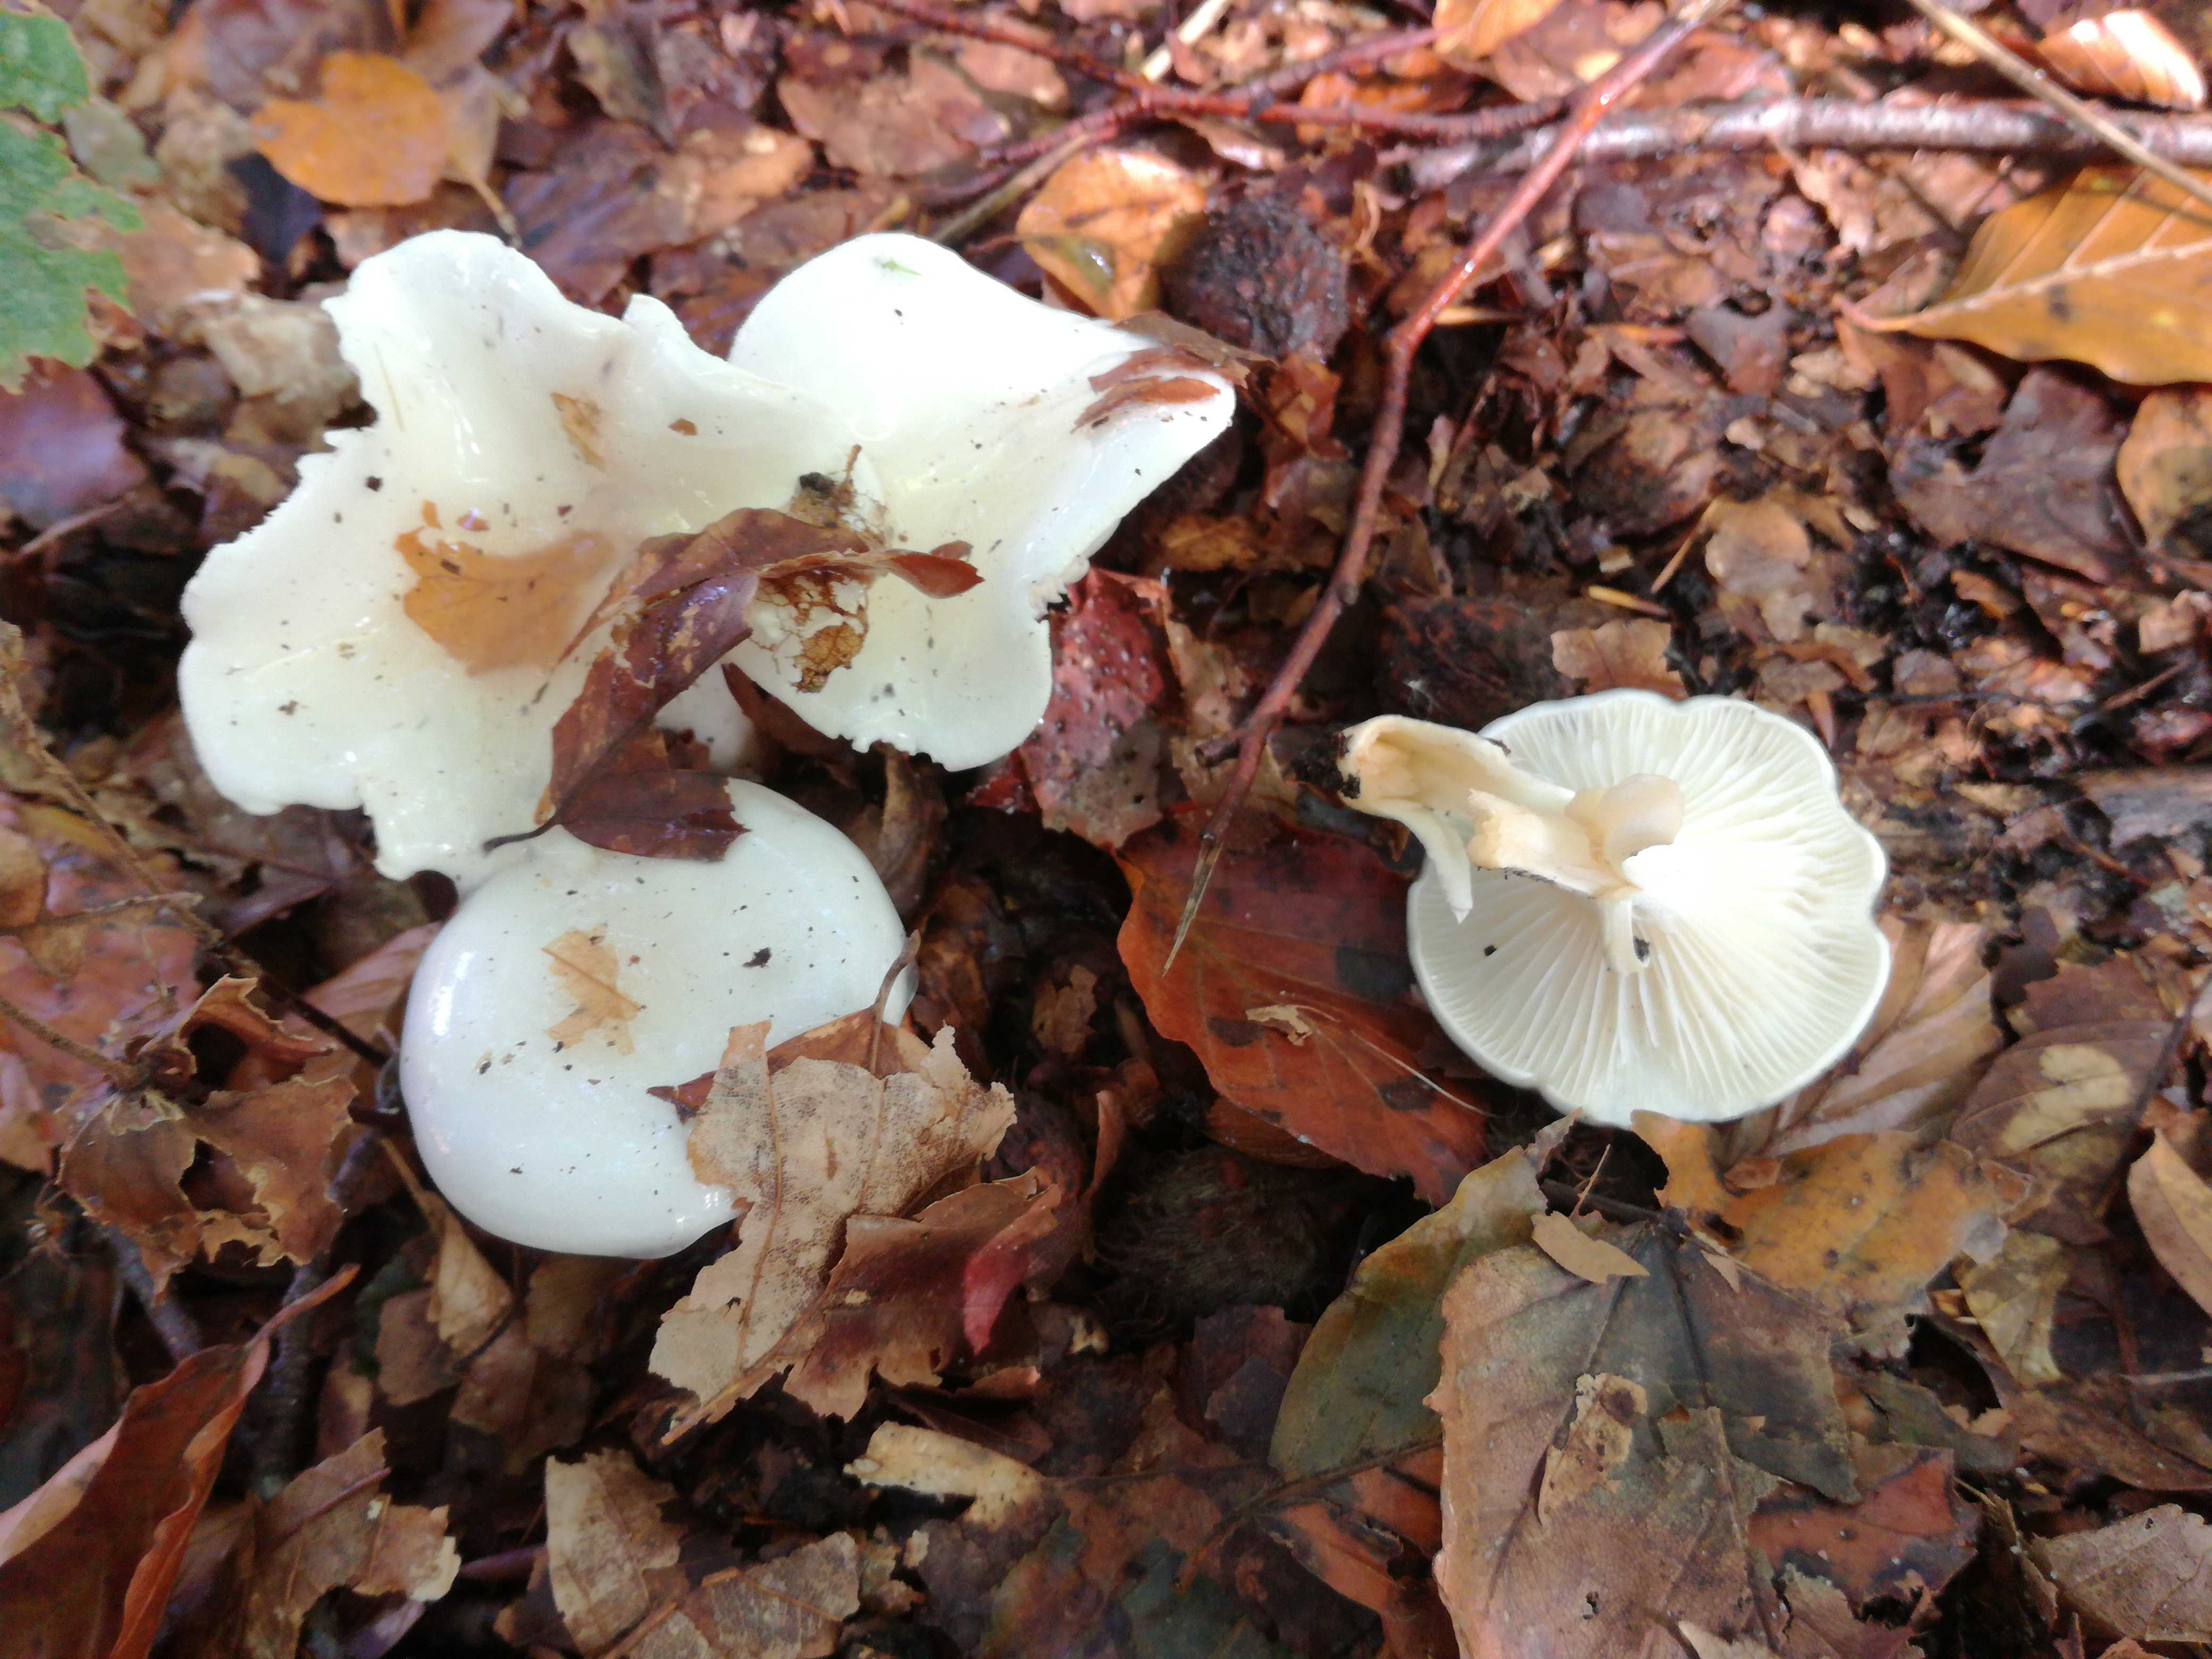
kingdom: Fungi
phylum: Basidiomycota
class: Agaricomycetes
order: Agaricales
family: Hygrophoraceae
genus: Hygrophorus
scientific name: Hygrophorus eburneus
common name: elfenbens-sneglehat
